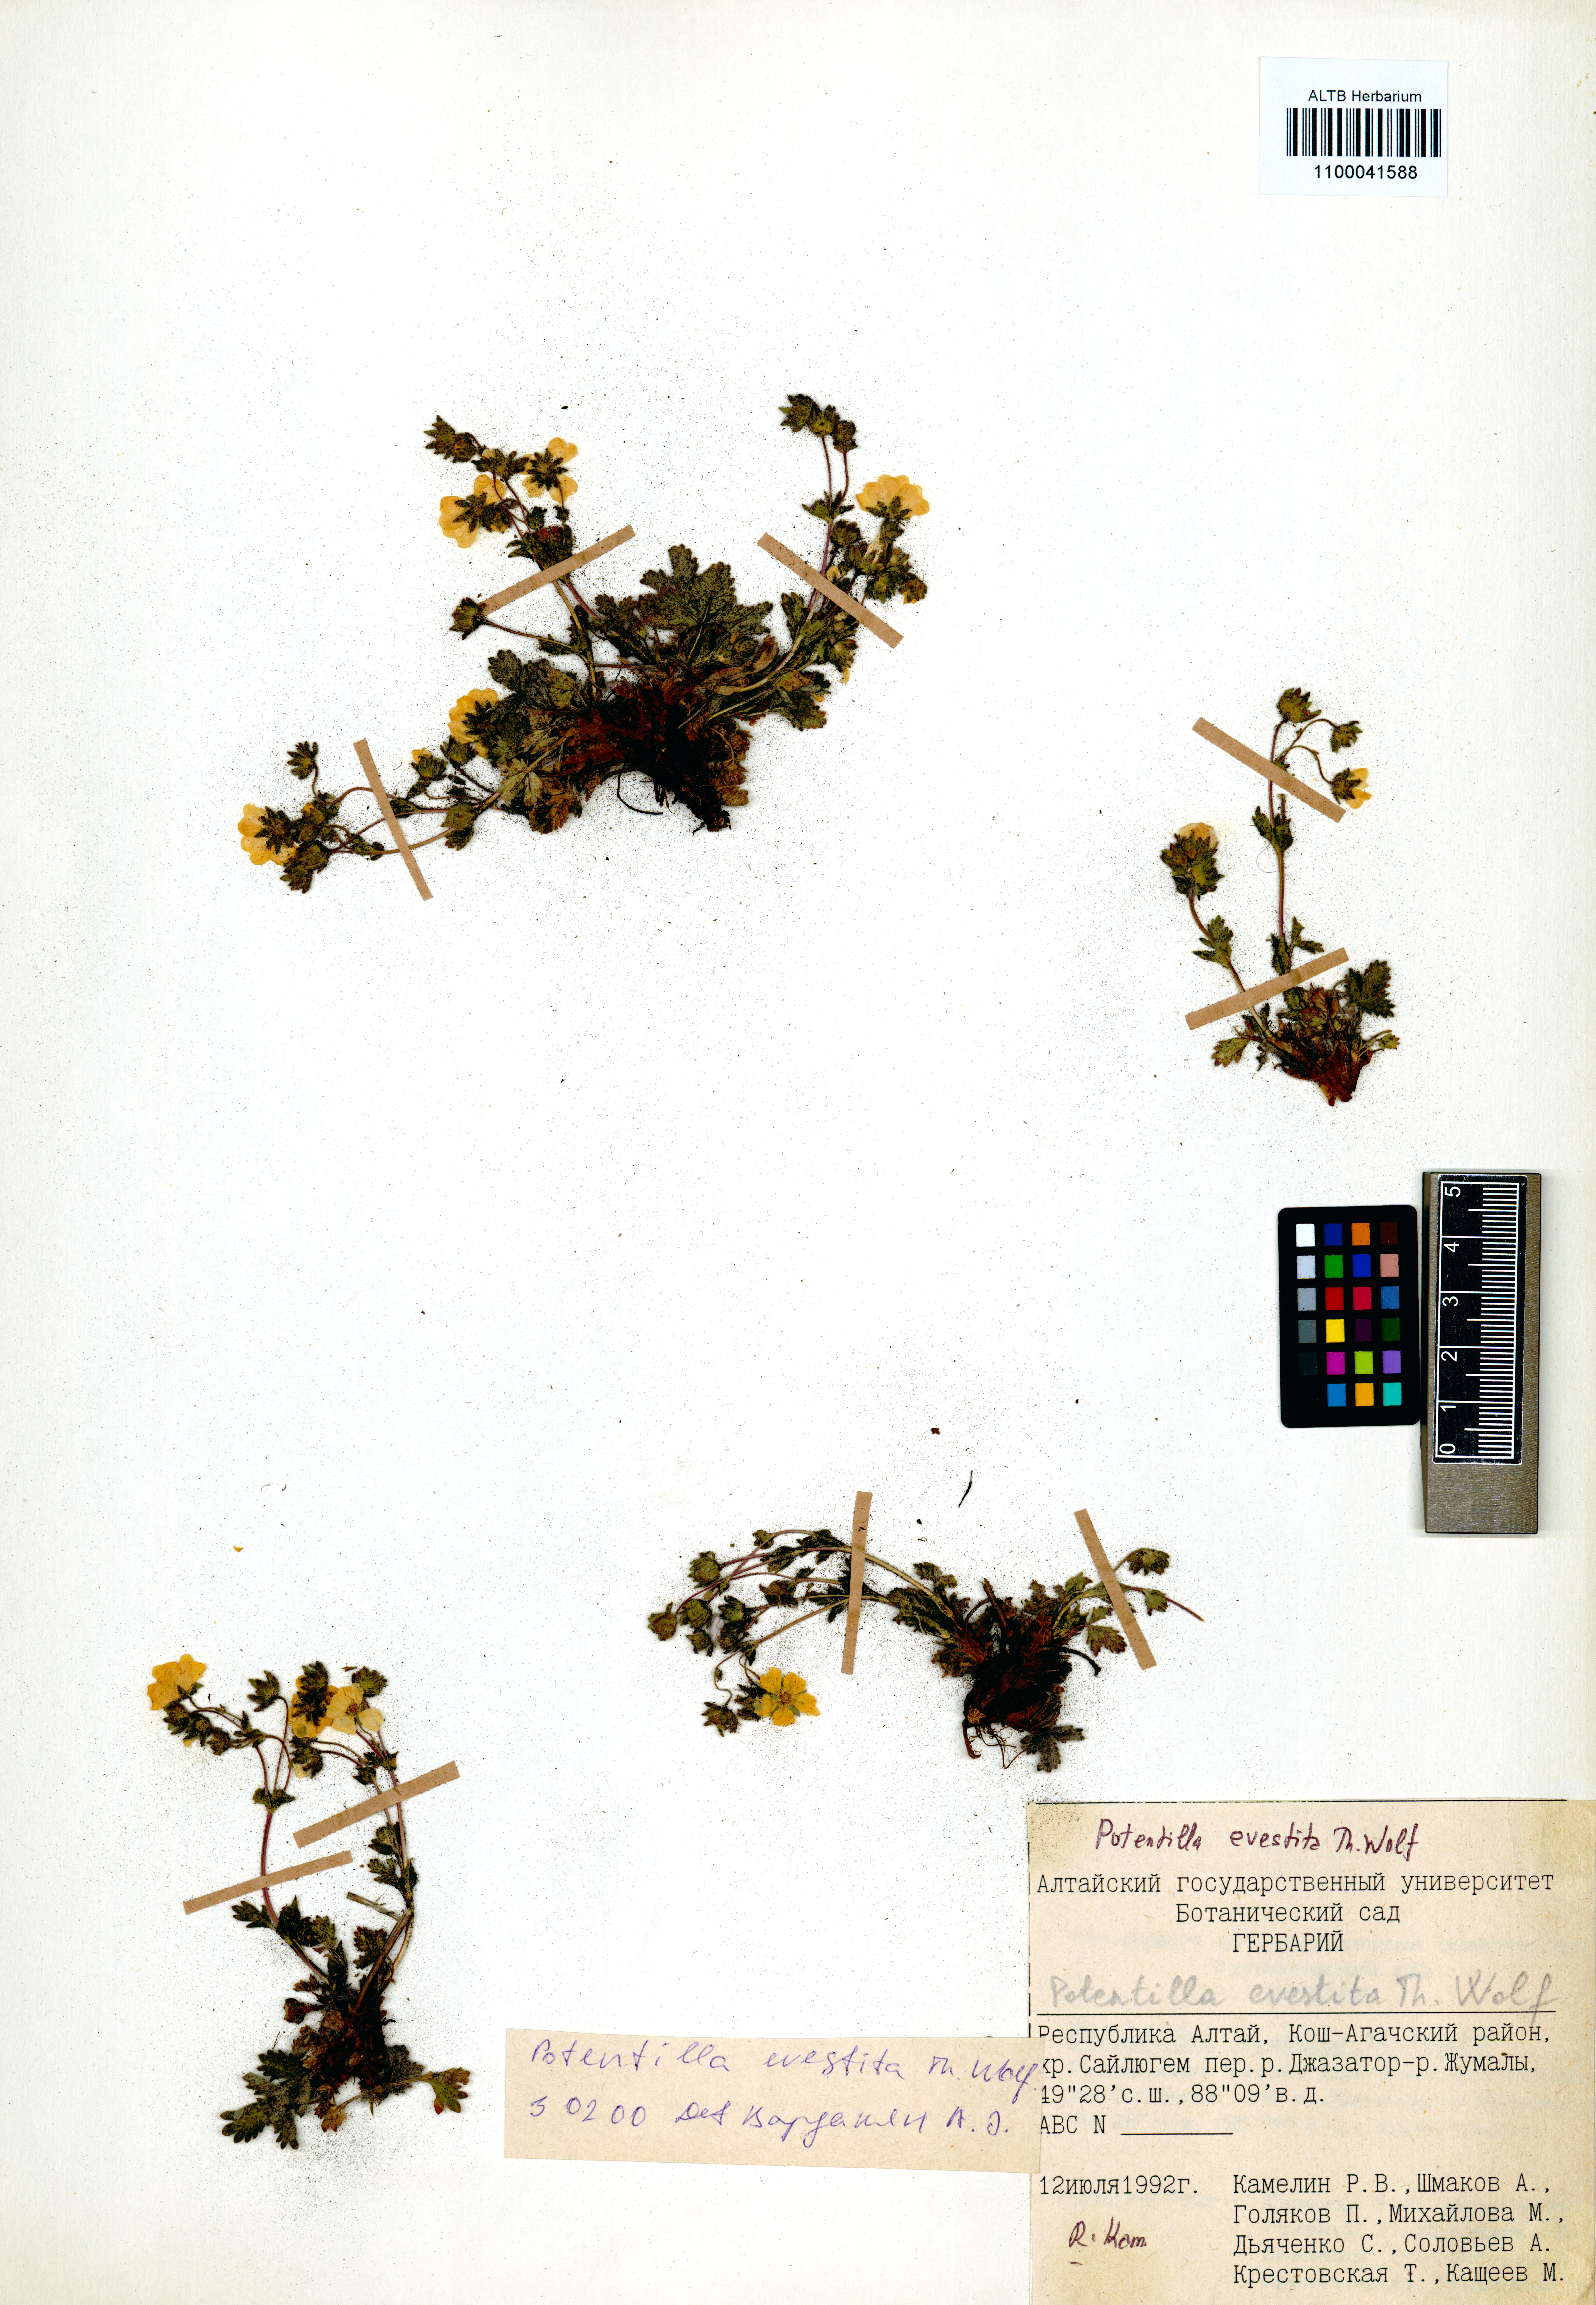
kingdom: Plantae
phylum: Tracheophyta
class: Magnoliopsida
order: Rosales
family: Rosaceae
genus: Potentilla
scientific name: Potentilla evestita
